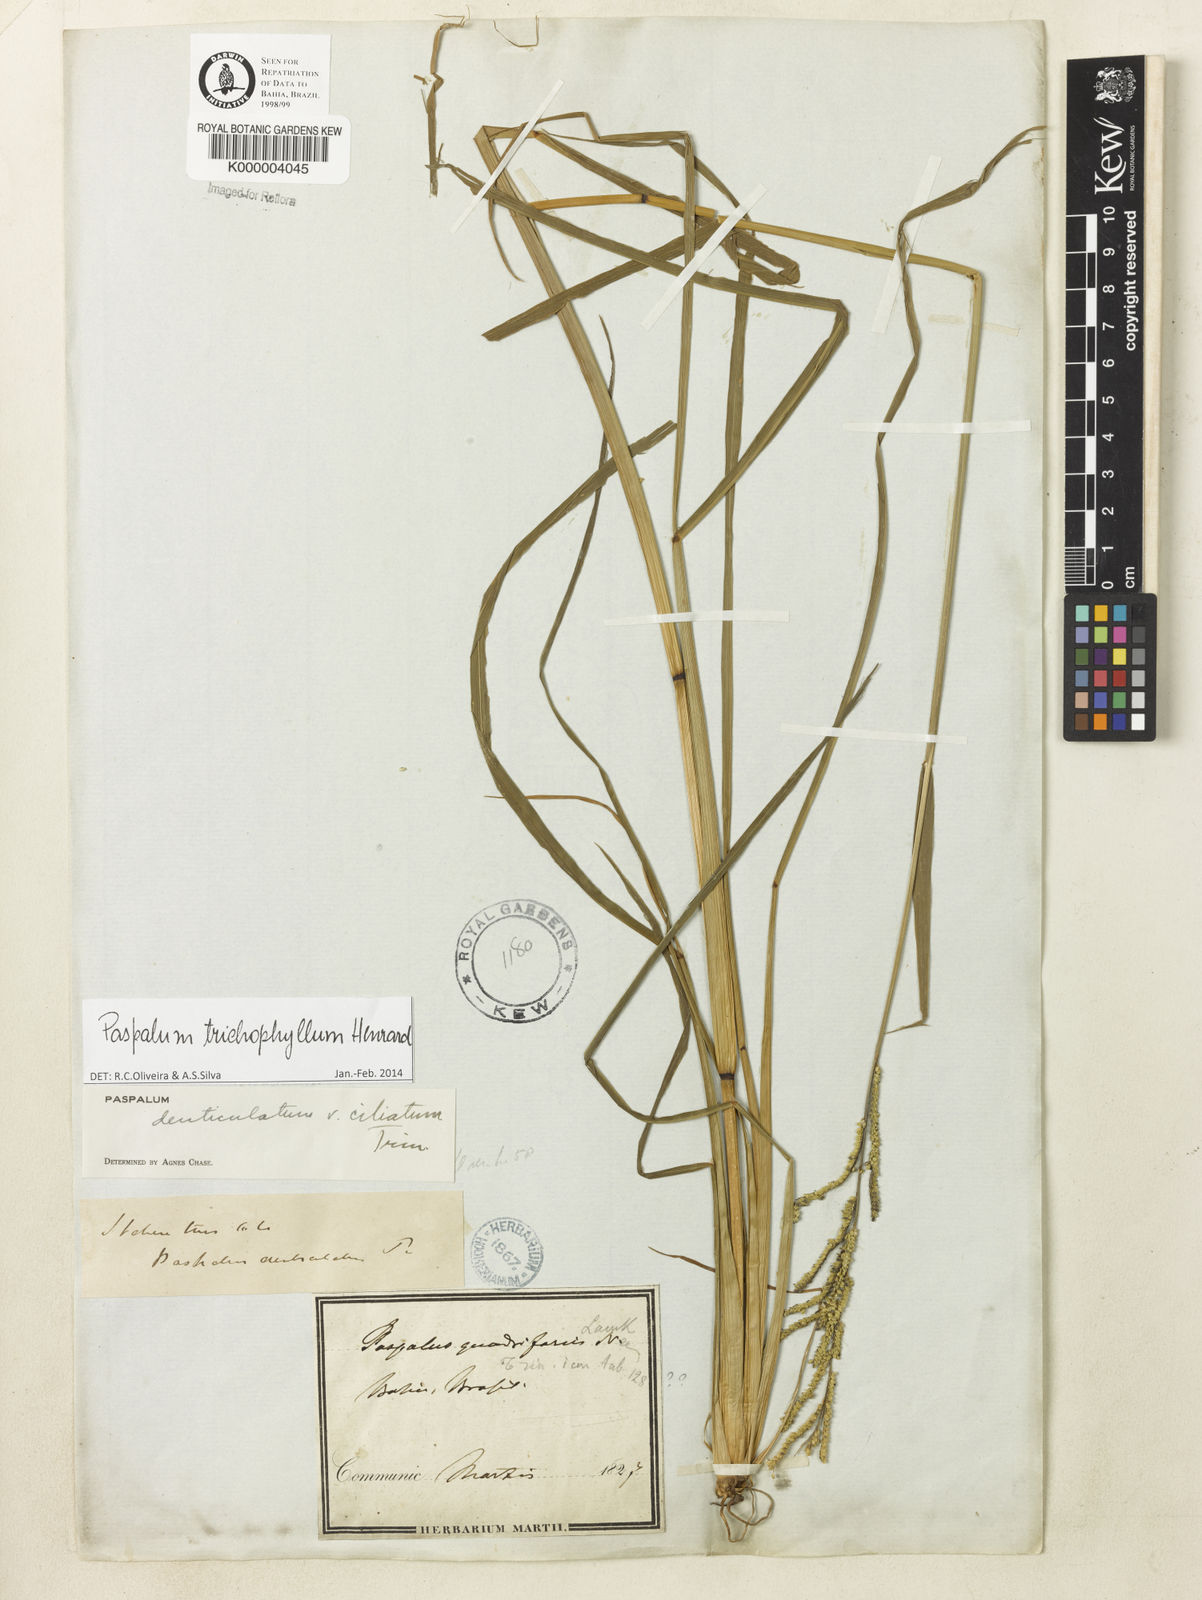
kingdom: Plantae
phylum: Tracheophyta
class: Liliopsida
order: Poales
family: Poaceae
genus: Paspalum
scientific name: Paspalum trichophyllum
